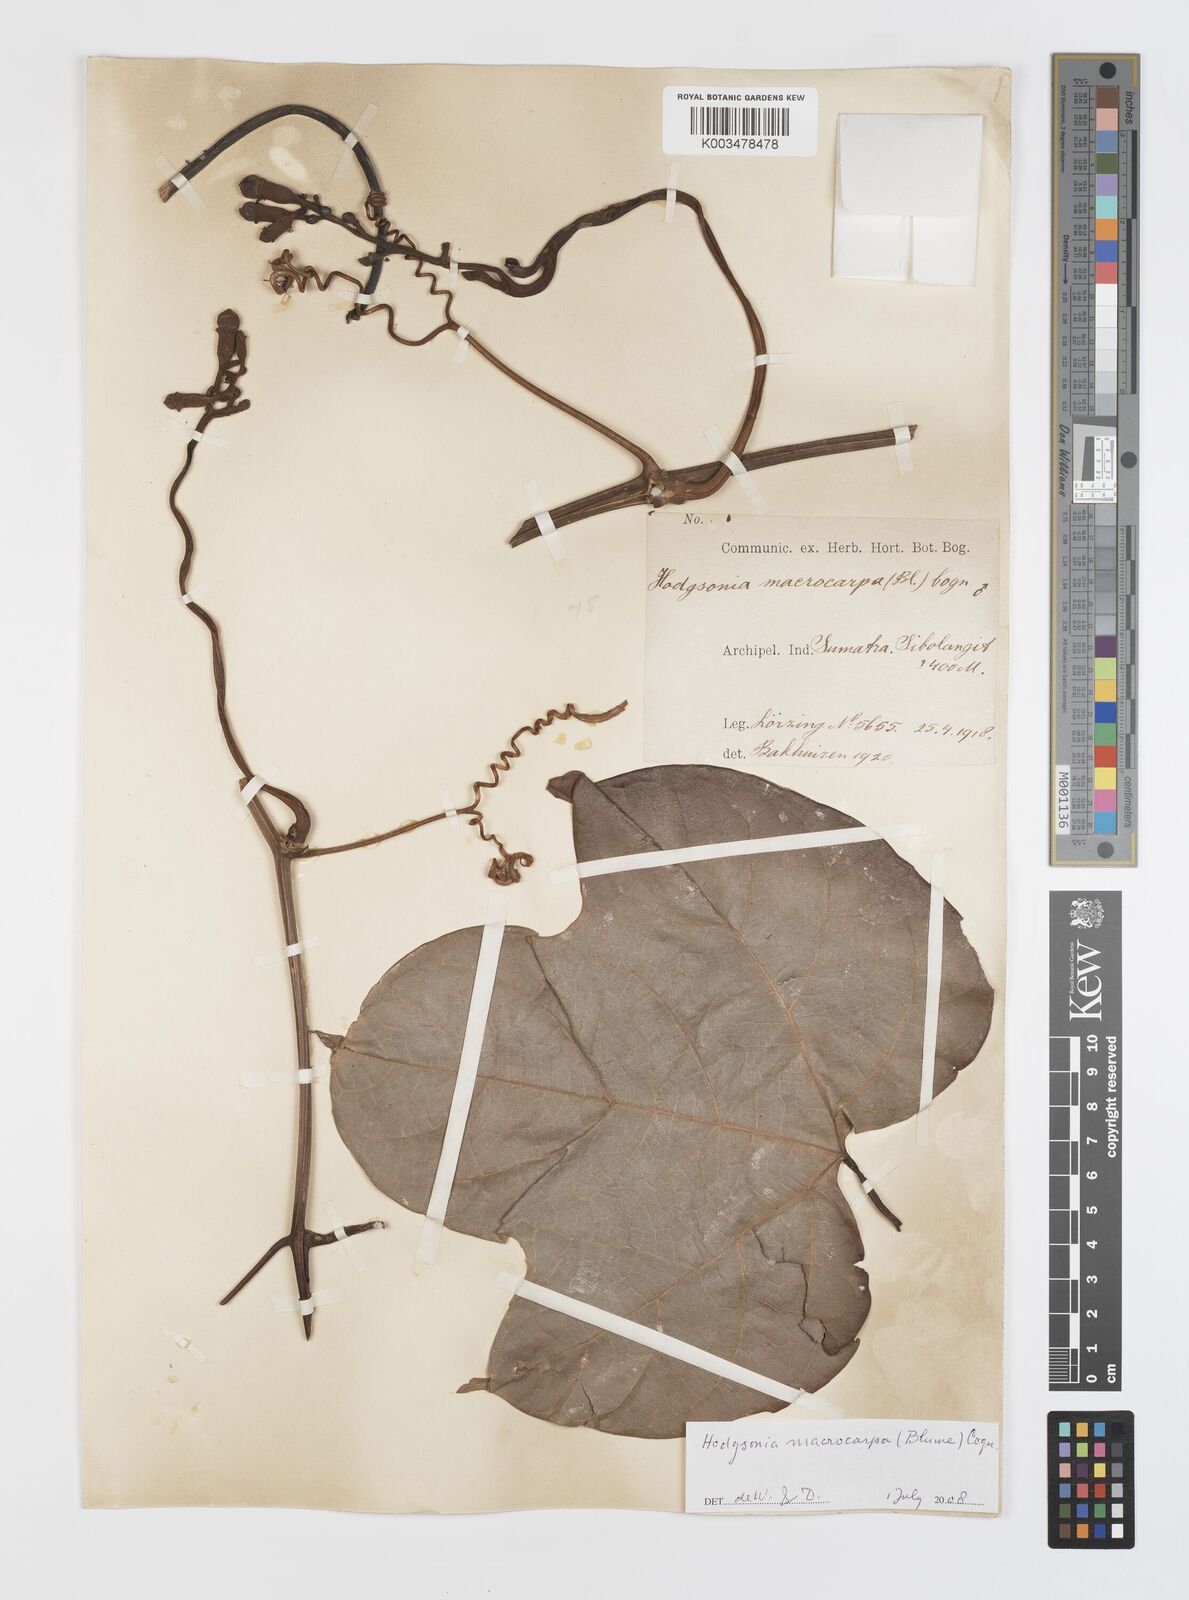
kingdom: Plantae
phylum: Tracheophyta
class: Magnoliopsida
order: Cucurbitales
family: Cucurbitaceae
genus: Hodgsonia
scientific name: Hodgsonia macrocarpa
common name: Chinese lardfruit
